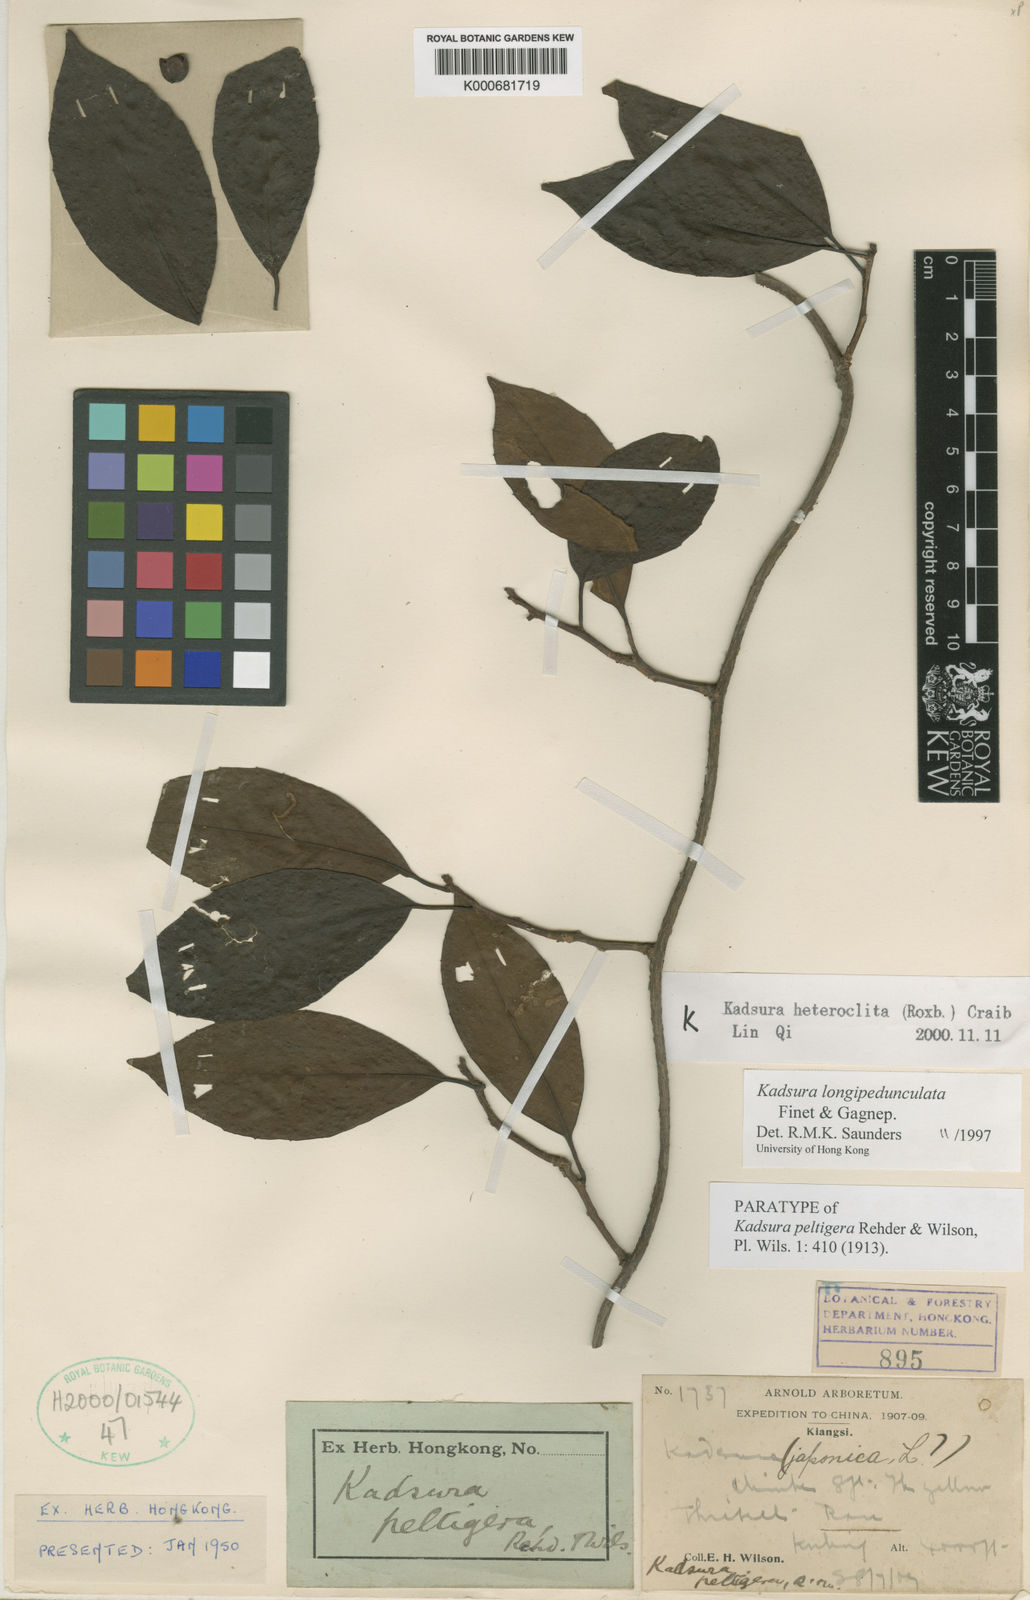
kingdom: Plantae
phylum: Tracheophyta
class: Magnoliopsida
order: Austrobaileyales
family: Schisandraceae
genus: Kadsura
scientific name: Kadsura longipedunculata
